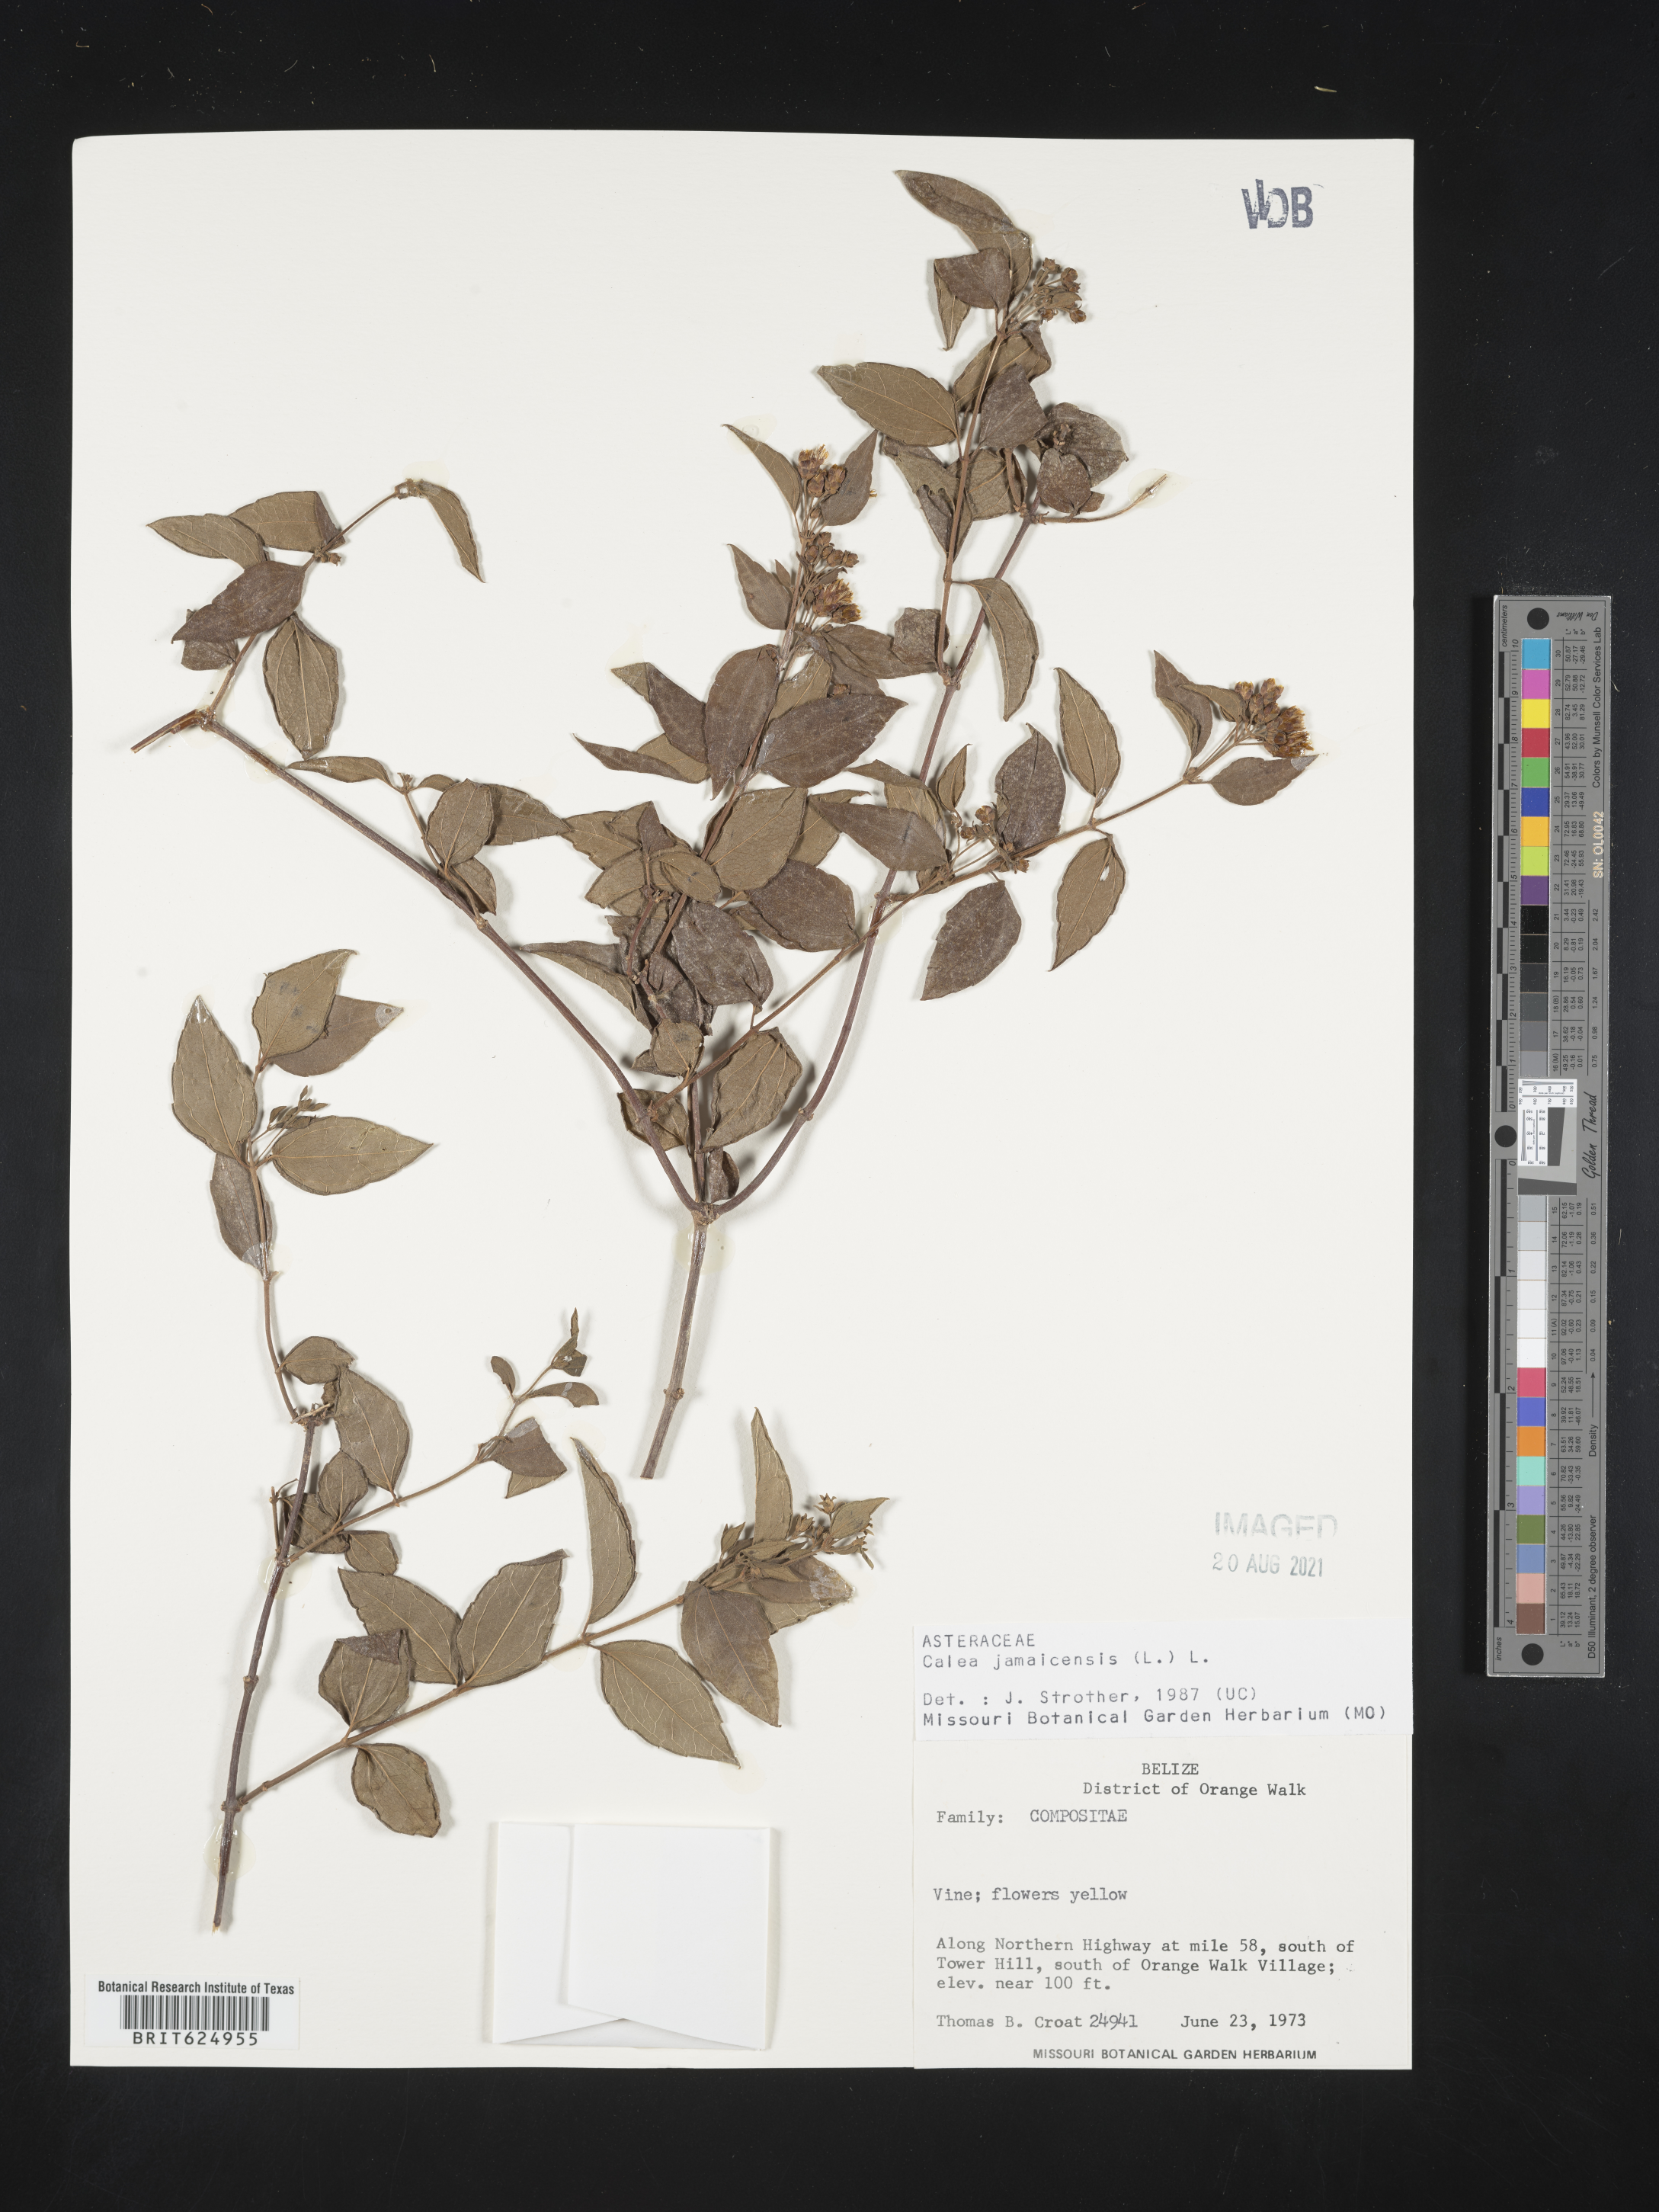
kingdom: Plantae
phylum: Tracheophyta
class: Magnoliopsida
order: Asterales
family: Asteraceae
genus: Calea
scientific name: Calea trichotoma
